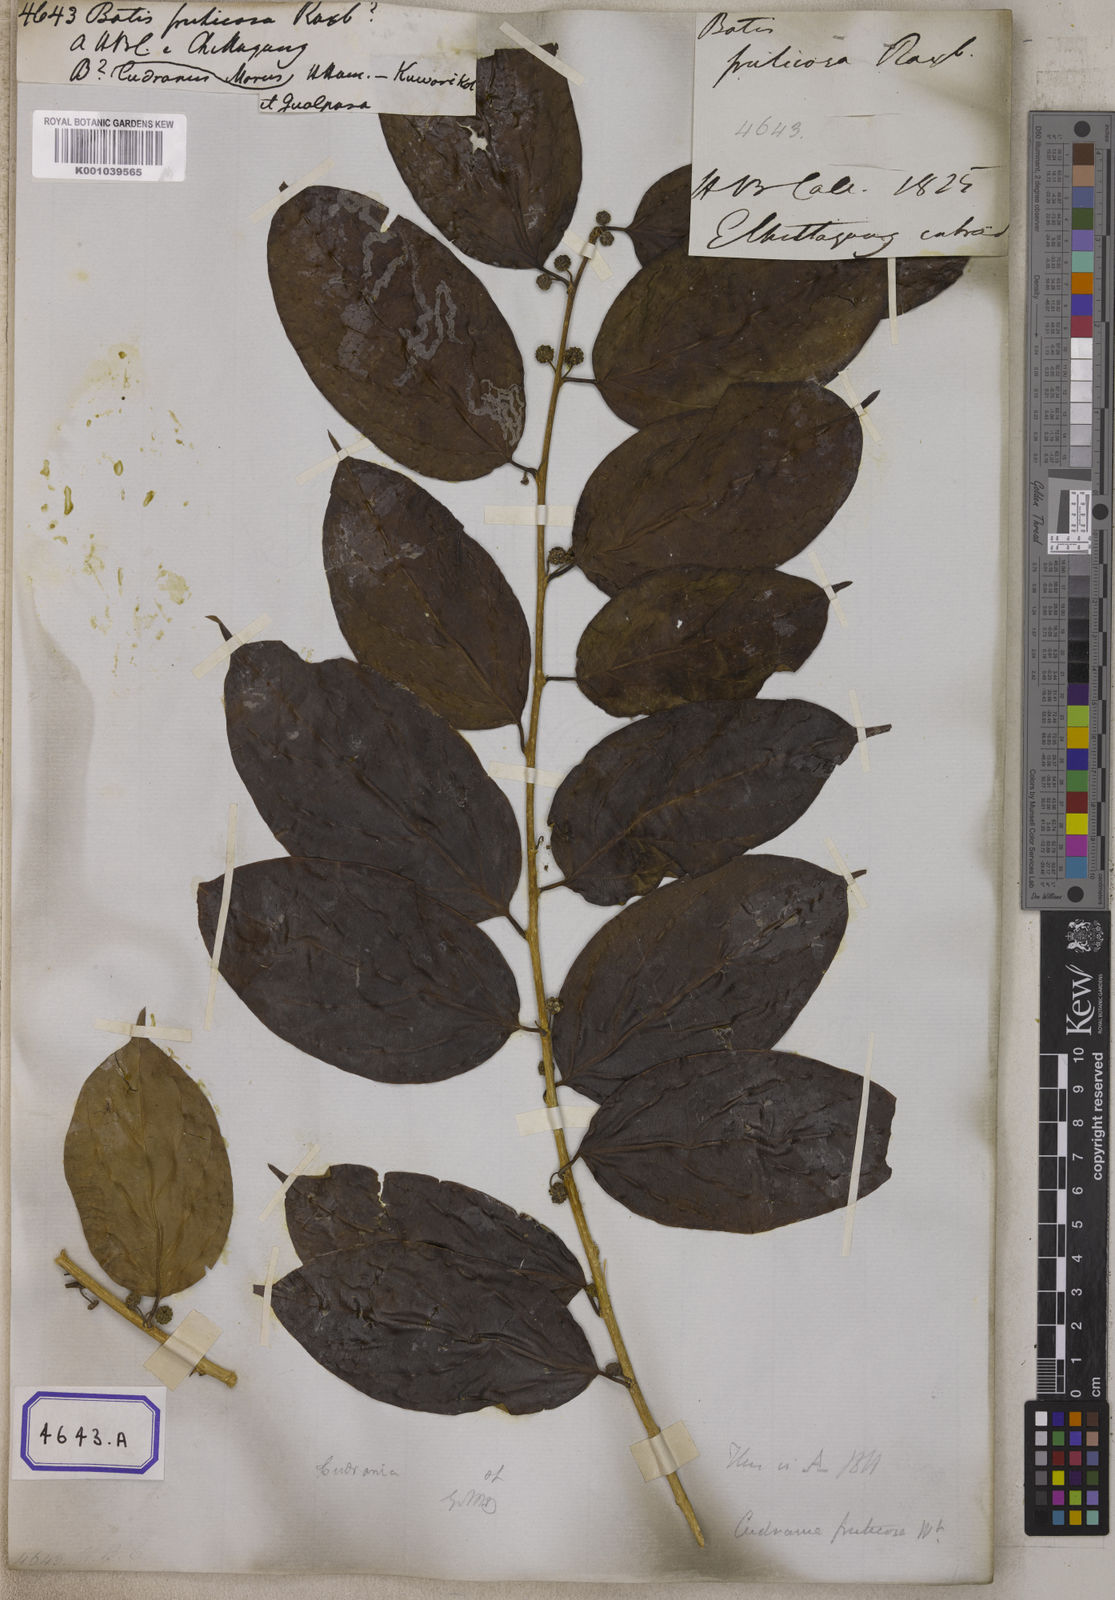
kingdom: Plantae
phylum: Tracheophyta
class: Magnoliopsida
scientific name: Magnoliopsida
